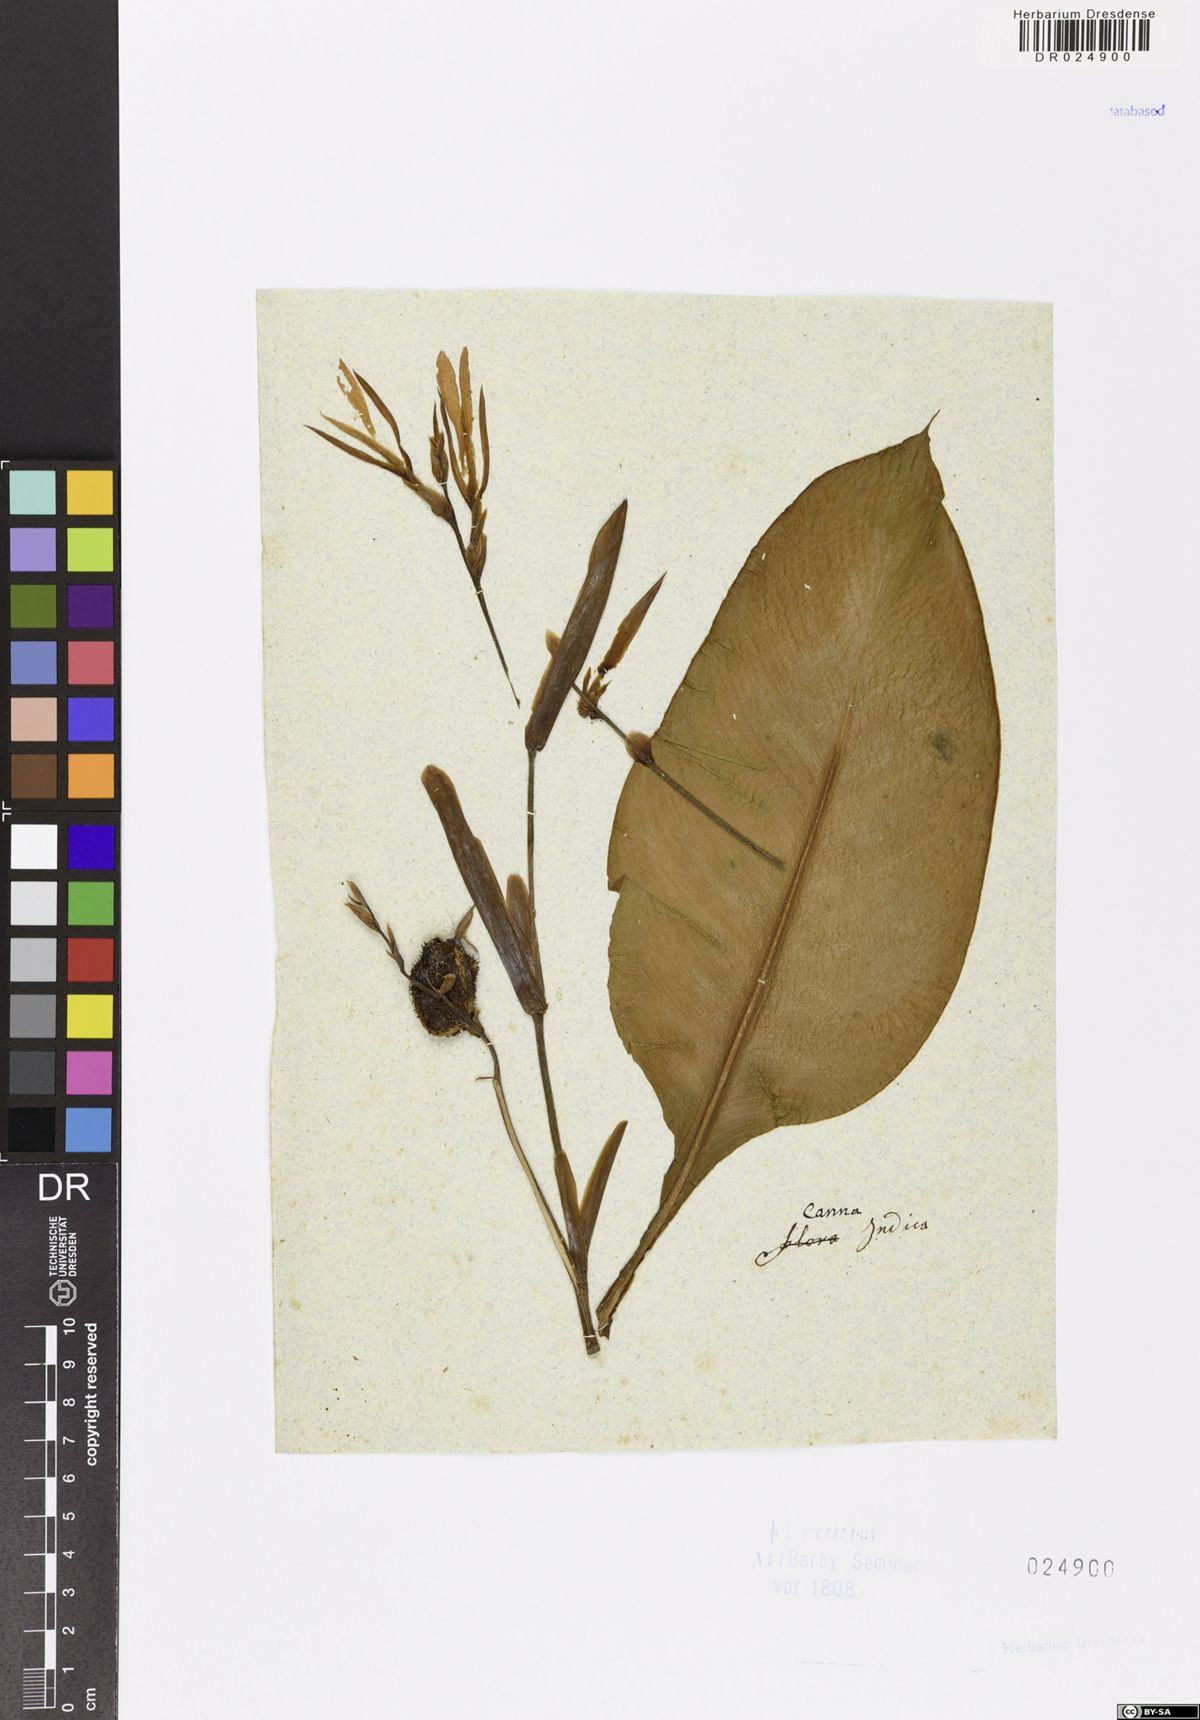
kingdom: Plantae
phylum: Tracheophyta
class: Liliopsida
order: Zingiberales
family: Cannaceae
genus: Canna
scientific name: Canna indica
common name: Indian shot
